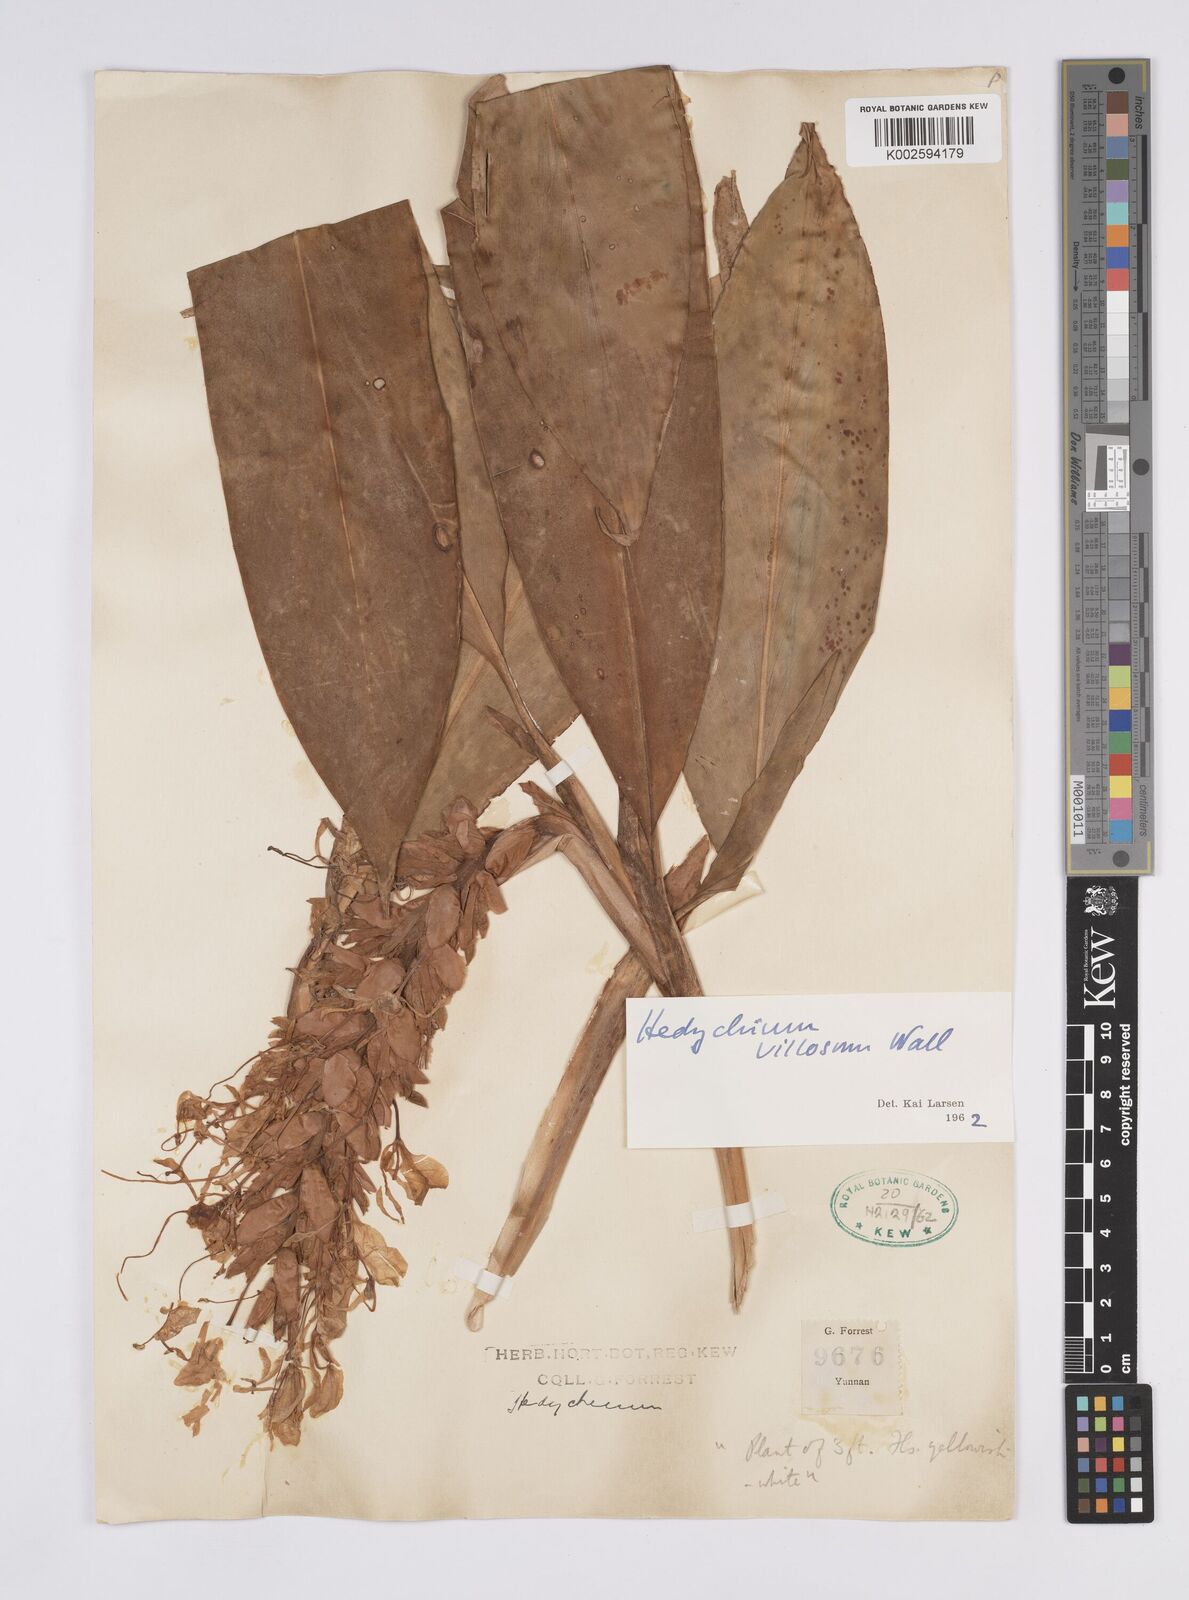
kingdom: Plantae
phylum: Tracheophyta
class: Liliopsida
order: Zingiberales
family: Zingiberaceae
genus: Hedychium
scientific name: Hedychium villosum
